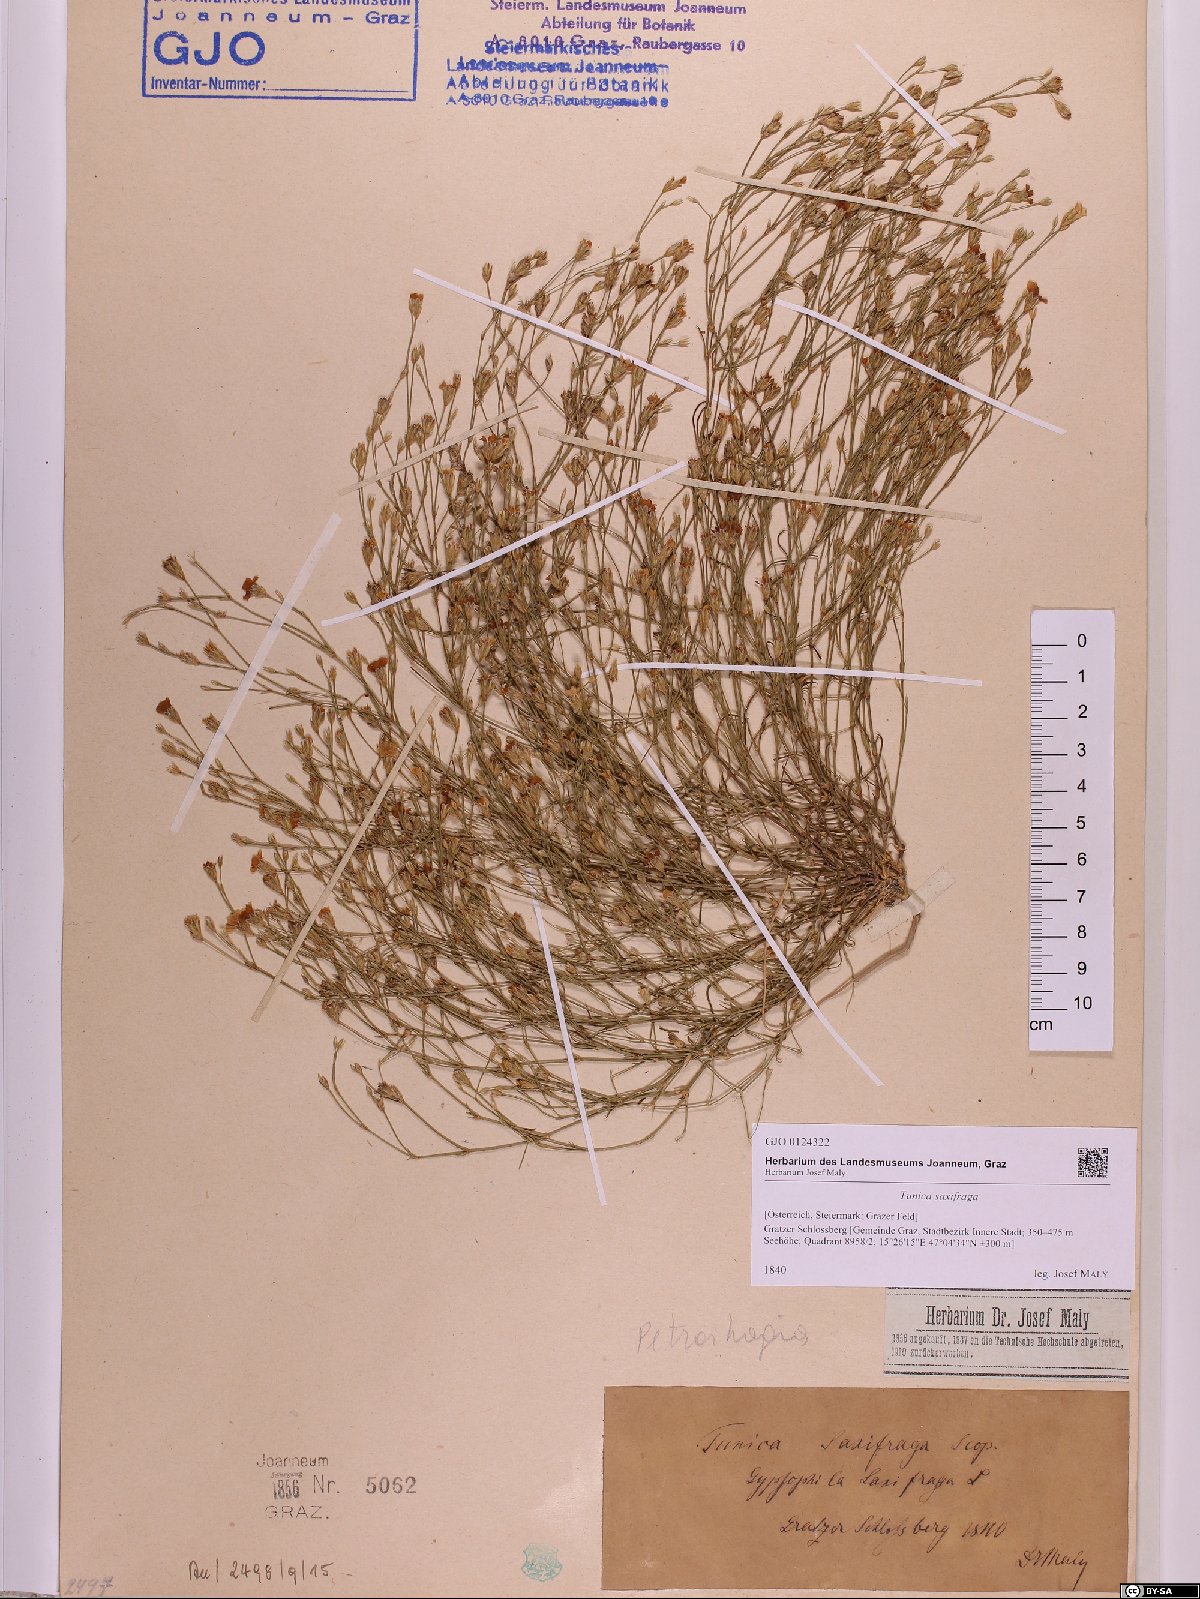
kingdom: Plantae
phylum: Tracheophyta
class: Magnoliopsida
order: Caryophyllales
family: Caryophyllaceae
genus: Petrorhagia
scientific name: Petrorhagia saxifraga
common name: Tunicflower
